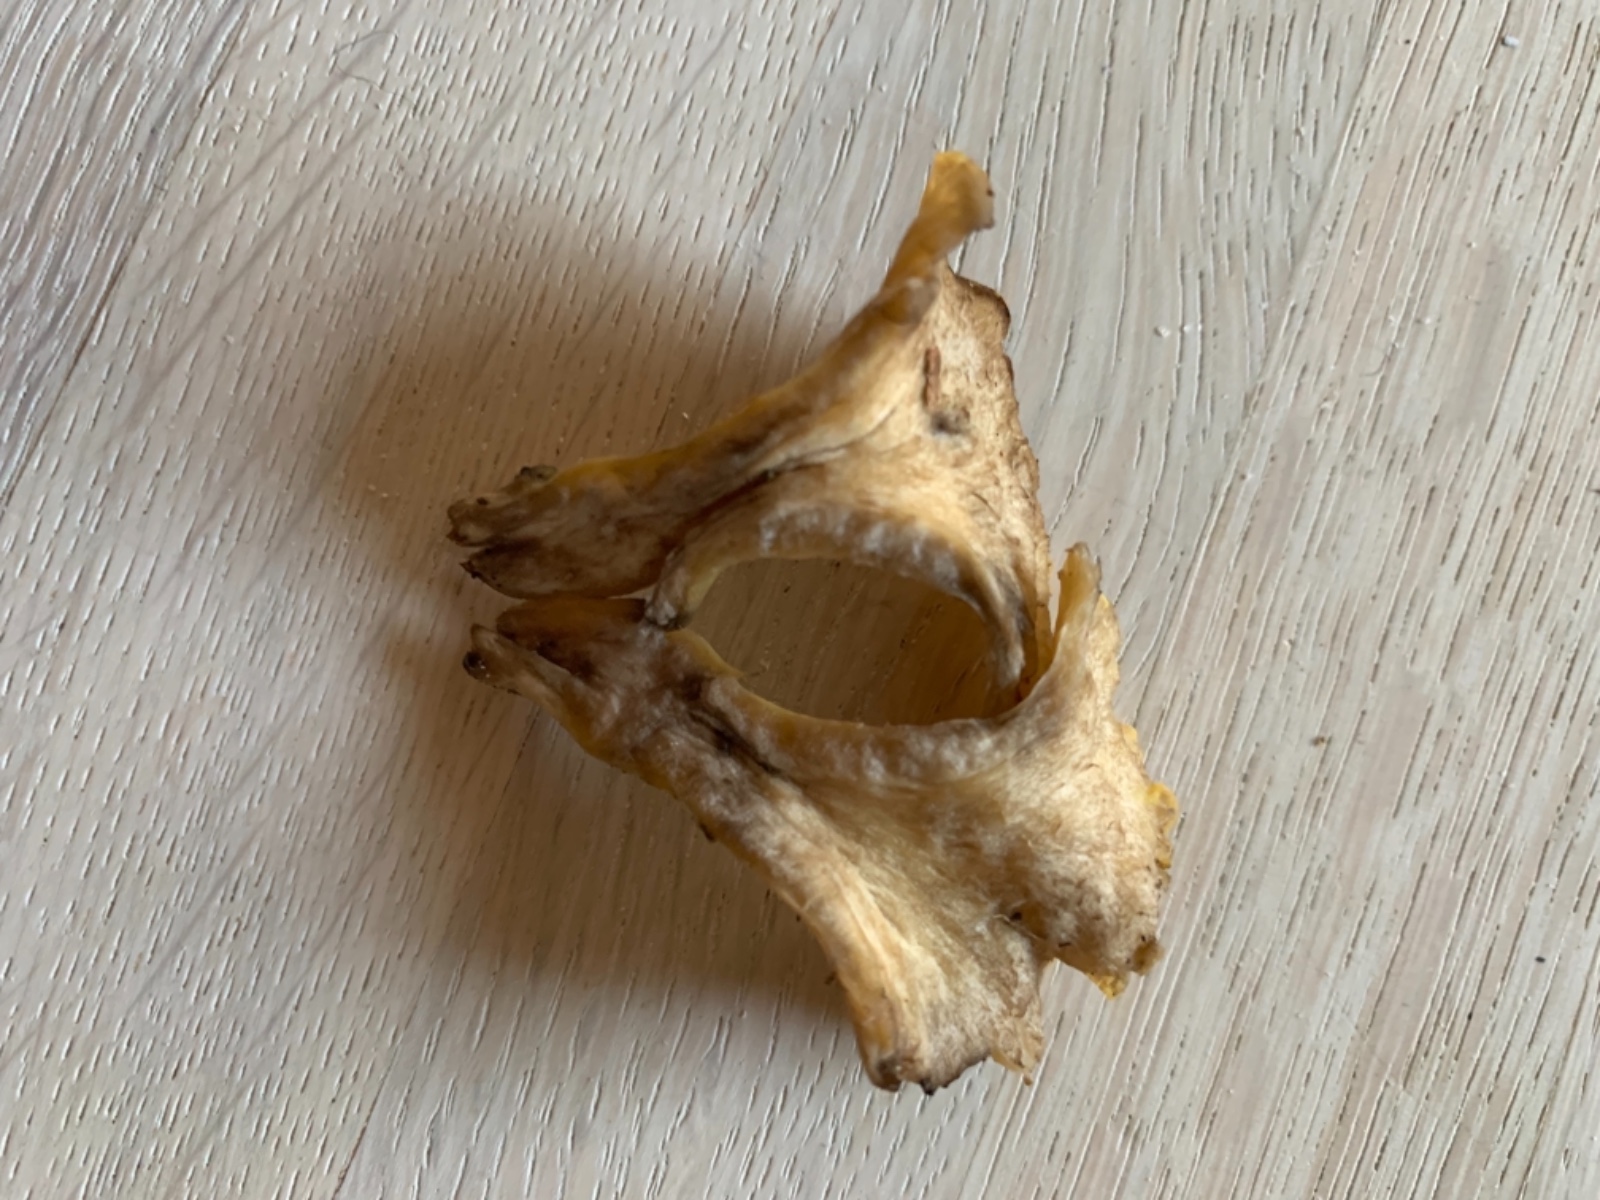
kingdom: Fungi
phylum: Basidiomycota
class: Agaricomycetes
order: Cantharellales
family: Hydnaceae
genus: Cantharellus
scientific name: Cantharellus melanoxeros
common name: sværtende kantarel
